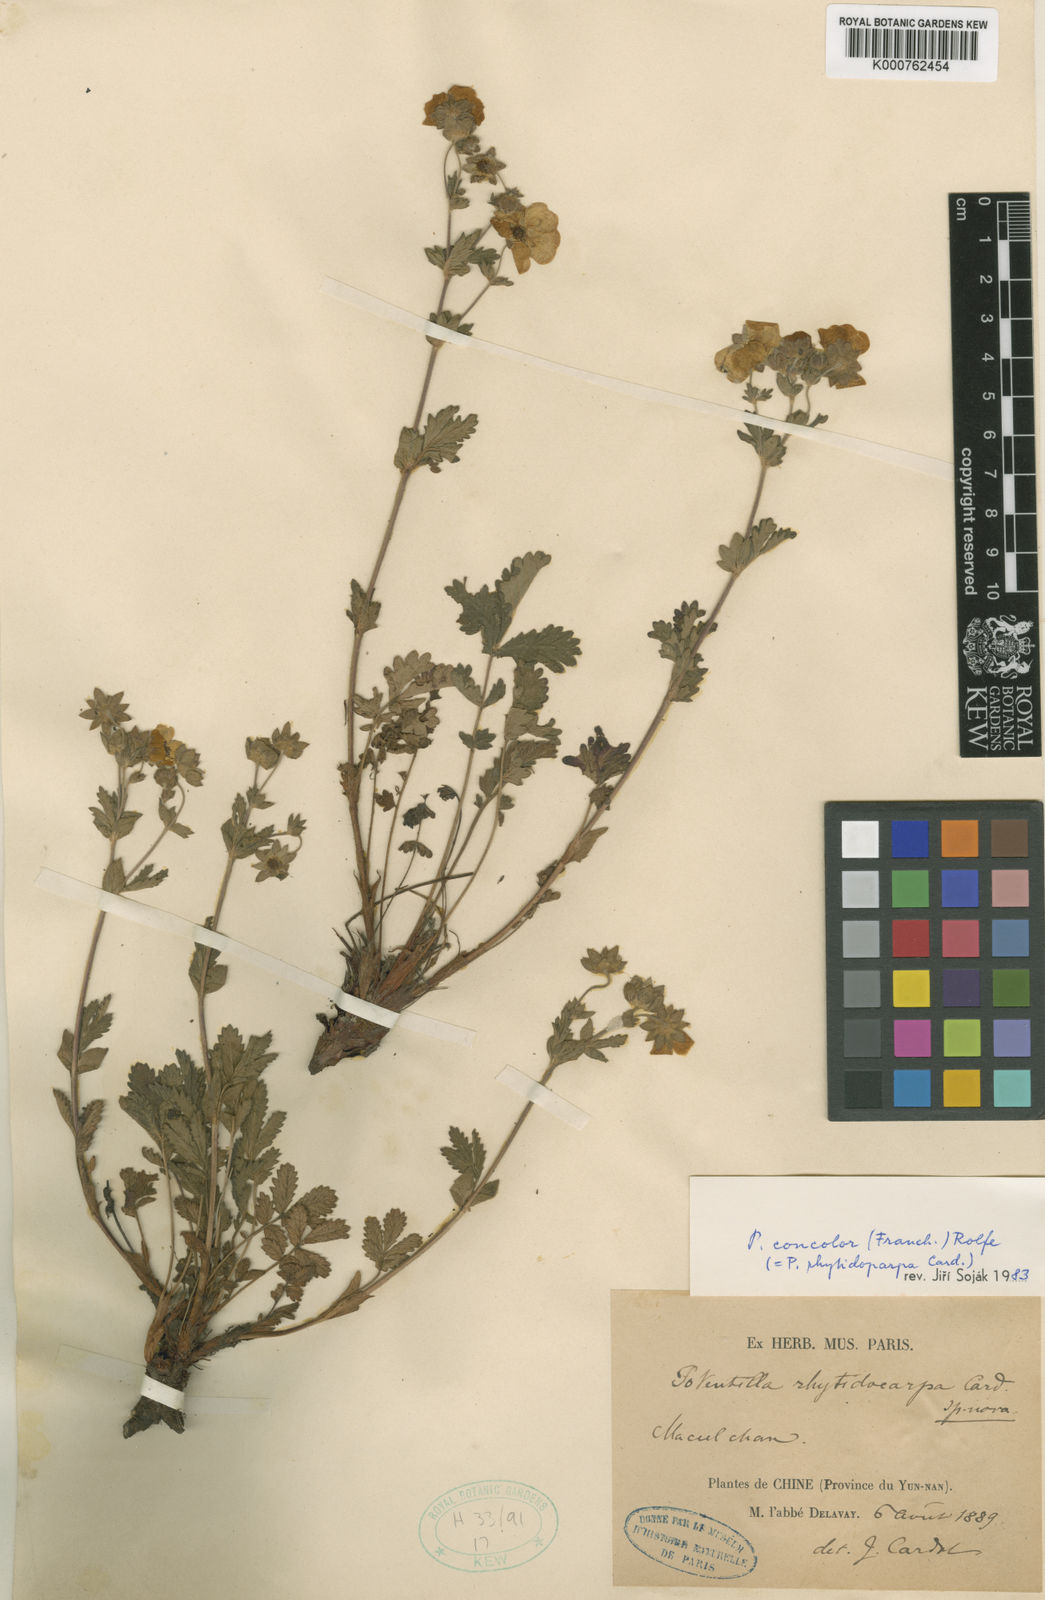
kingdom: Plantae
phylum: Tracheophyta
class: Magnoliopsida
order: Rosales
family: Rosaceae
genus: Potentilla
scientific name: Potentilla lancinata
